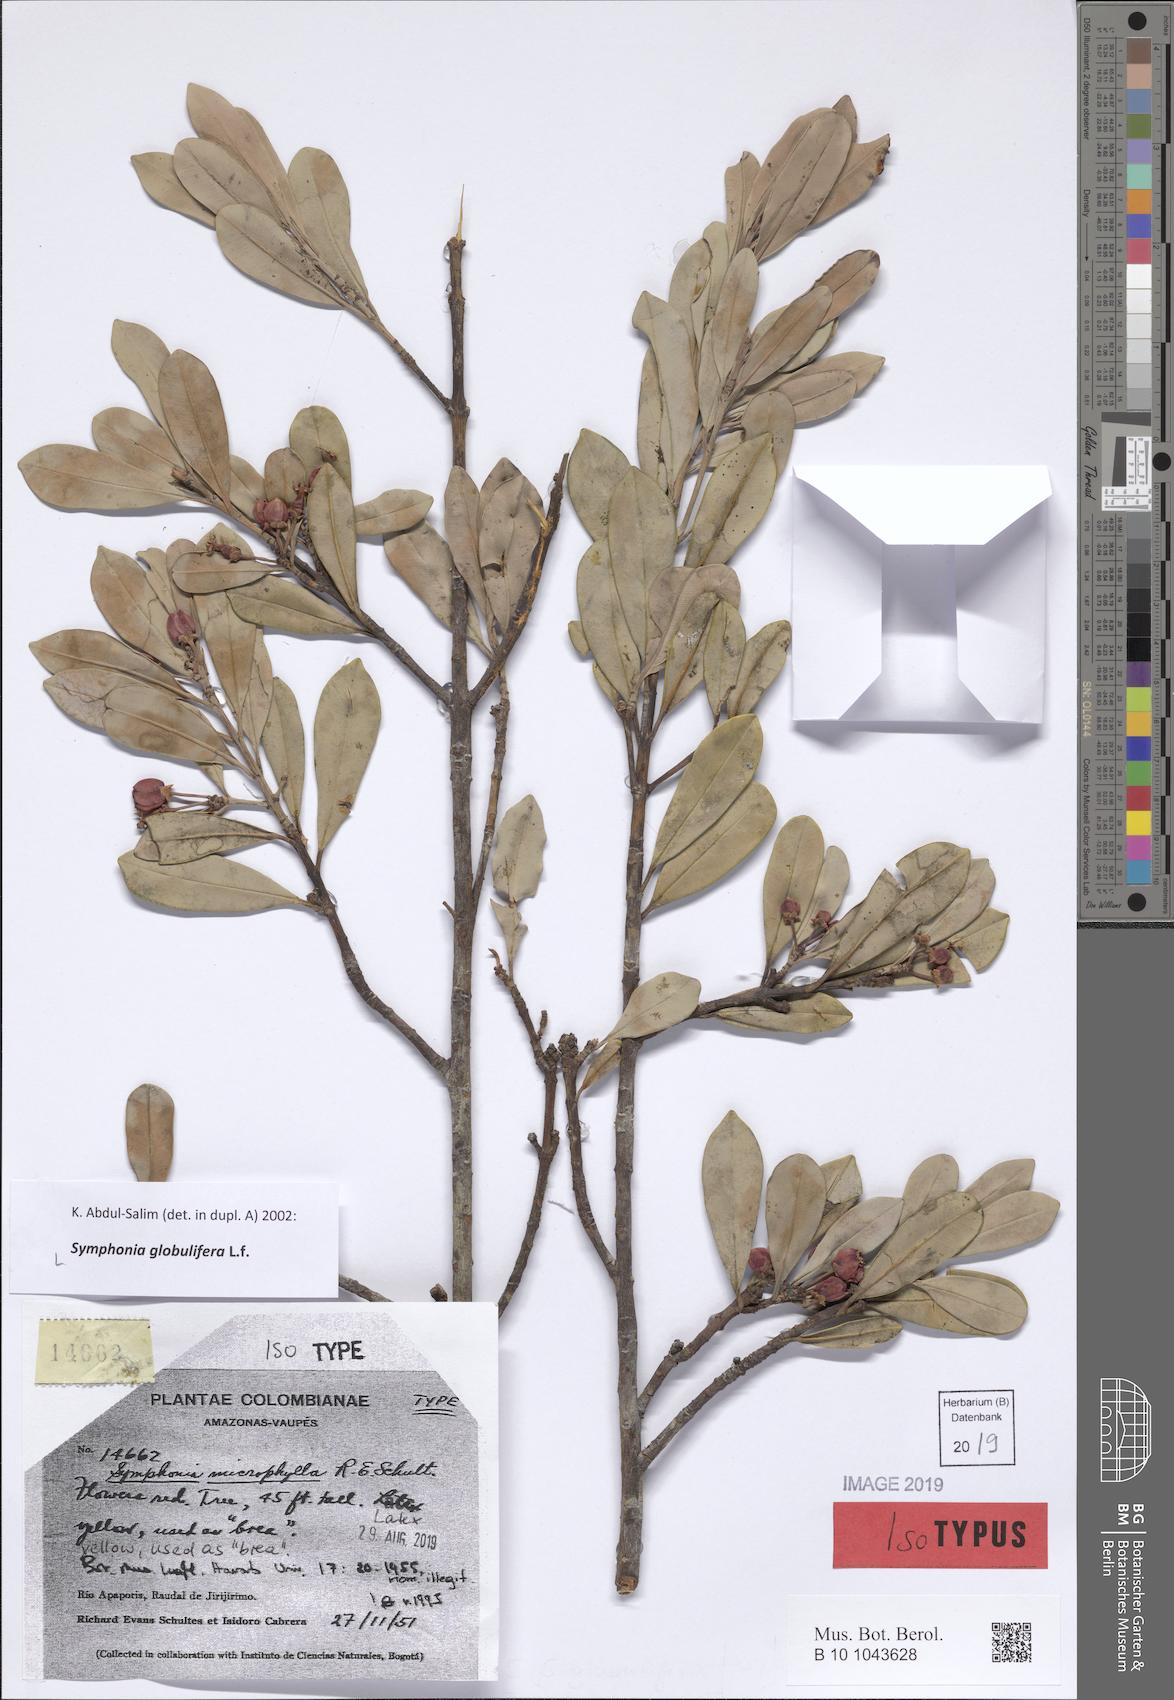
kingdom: Plantae
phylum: Tracheophyta
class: Magnoliopsida
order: Malpighiales
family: Clusiaceae
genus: Symphonia
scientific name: Symphonia globulifera
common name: Boarwood
